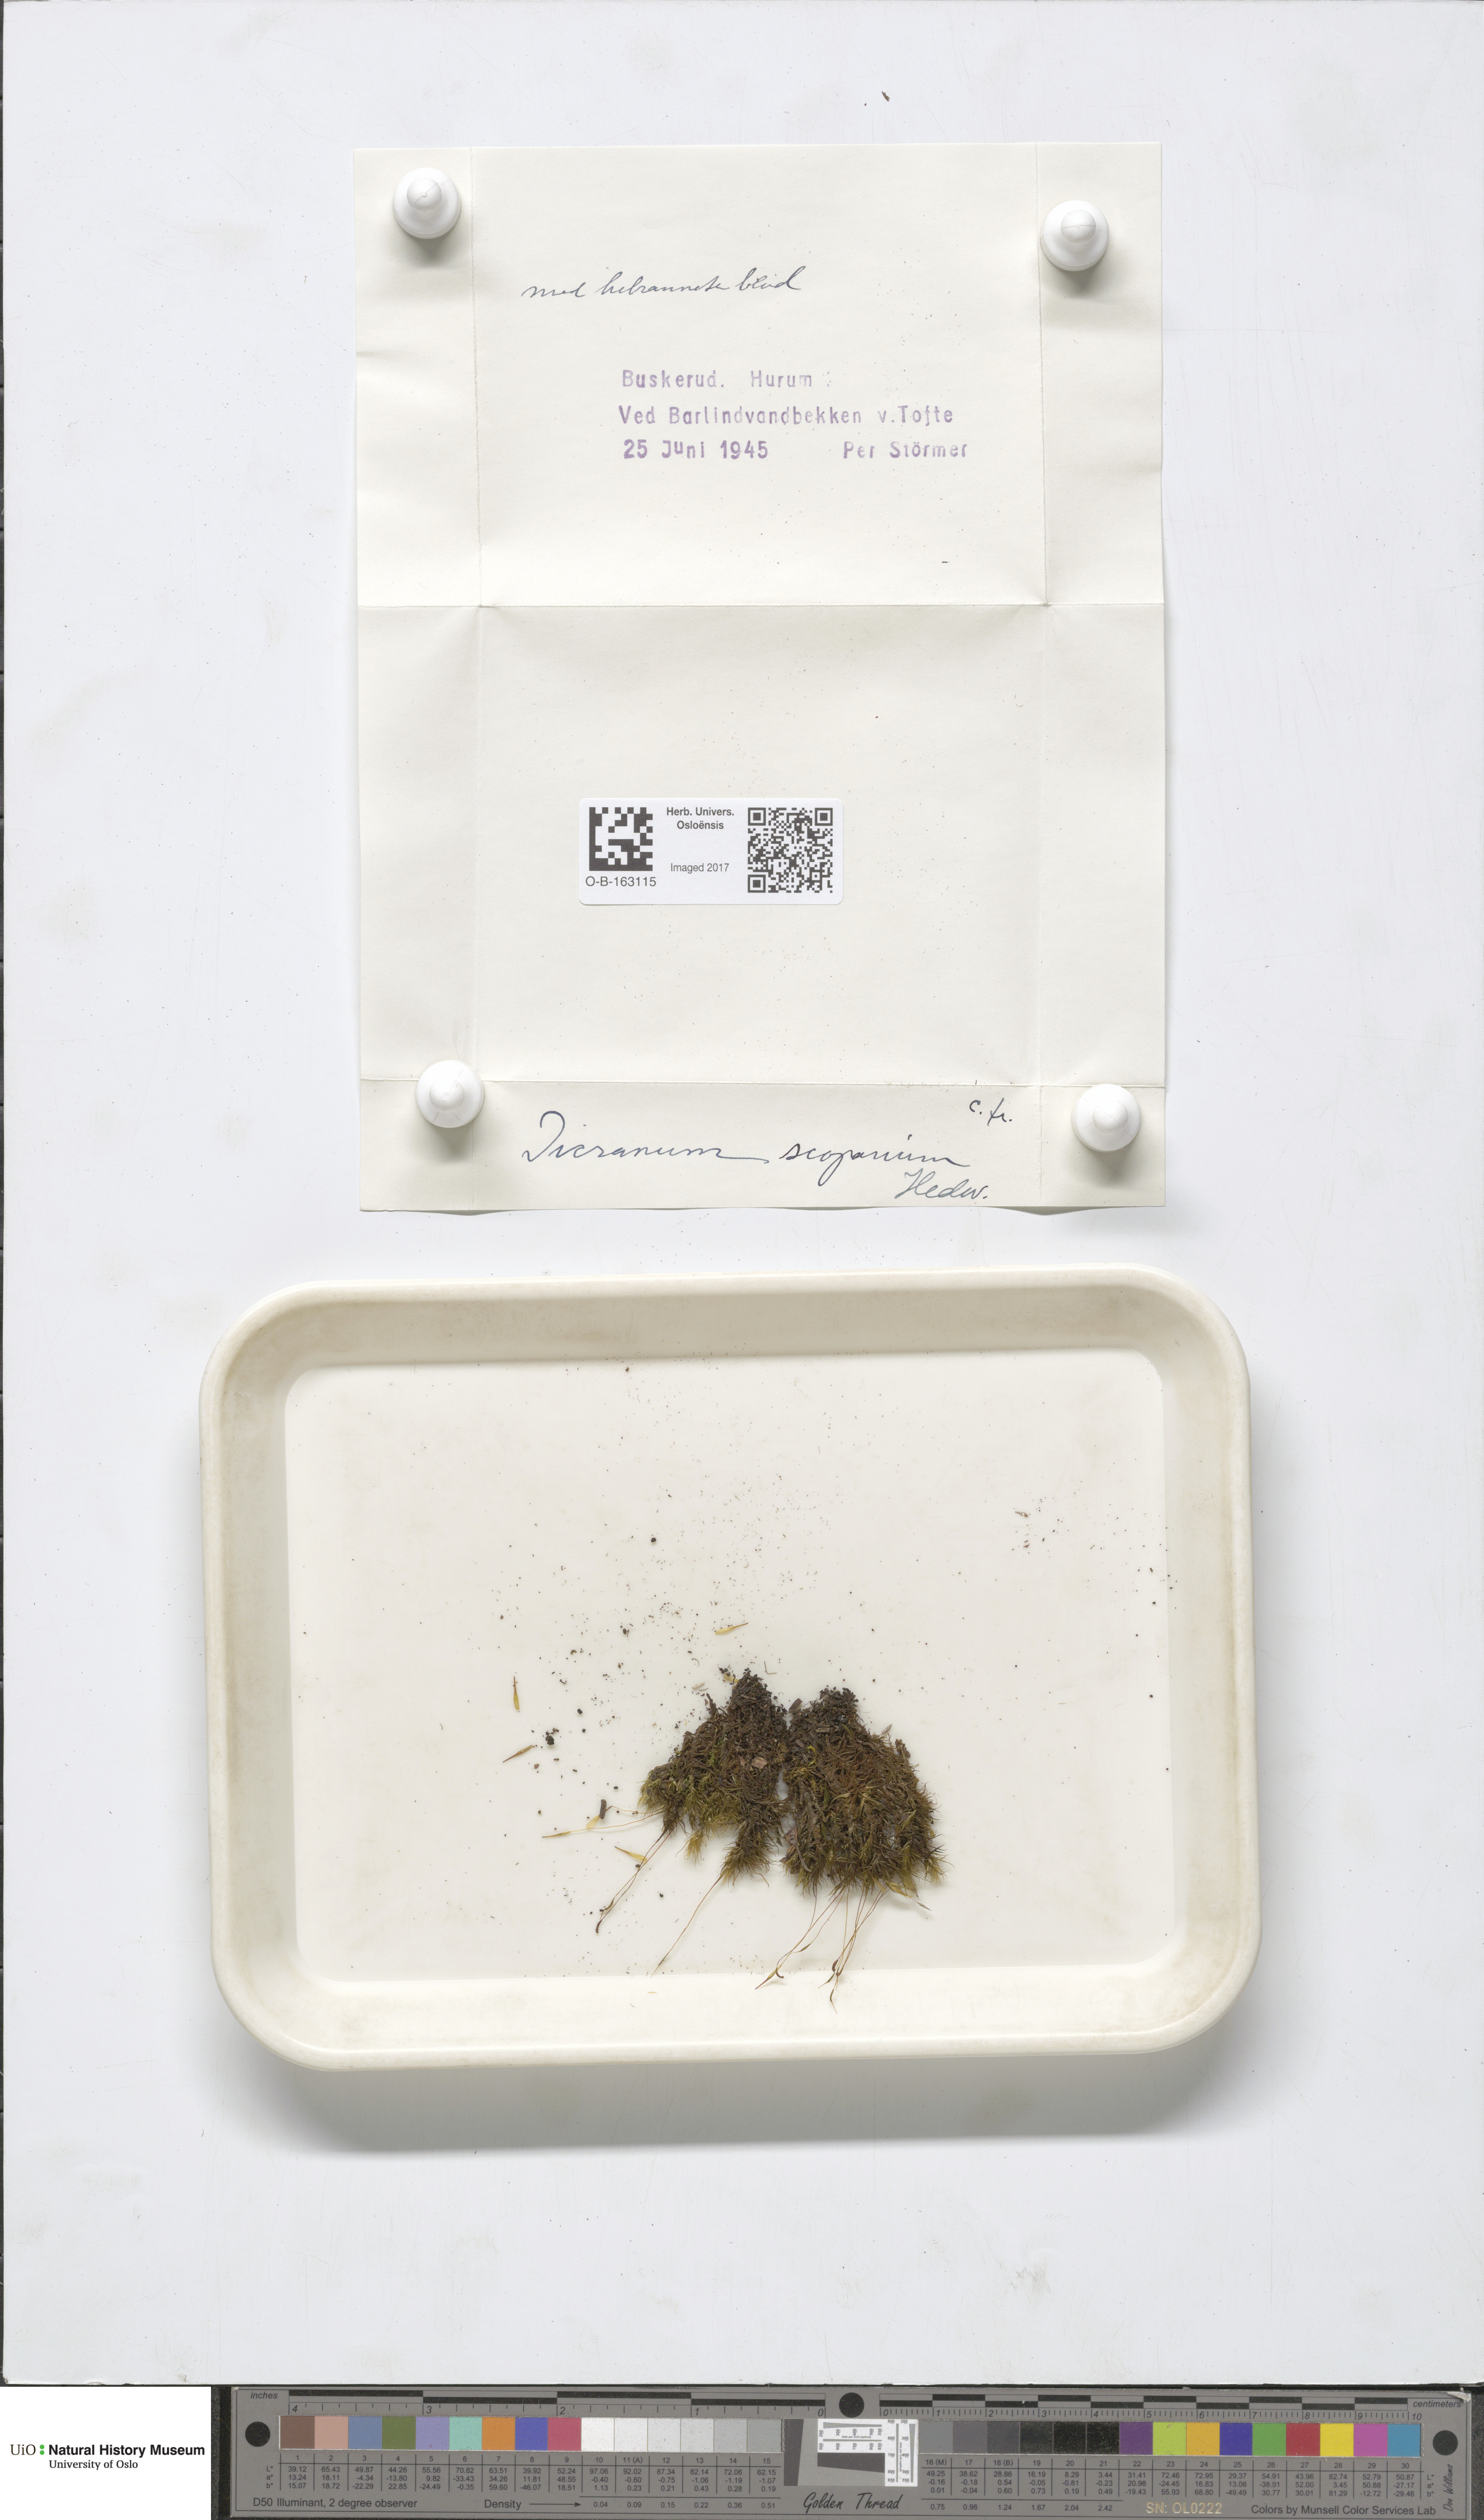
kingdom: Plantae
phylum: Bryophyta
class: Bryopsida
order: Dicranales
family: Dicranaceae
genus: Dicranum
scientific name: Dicranum scoparium
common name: Broom fork-moss
